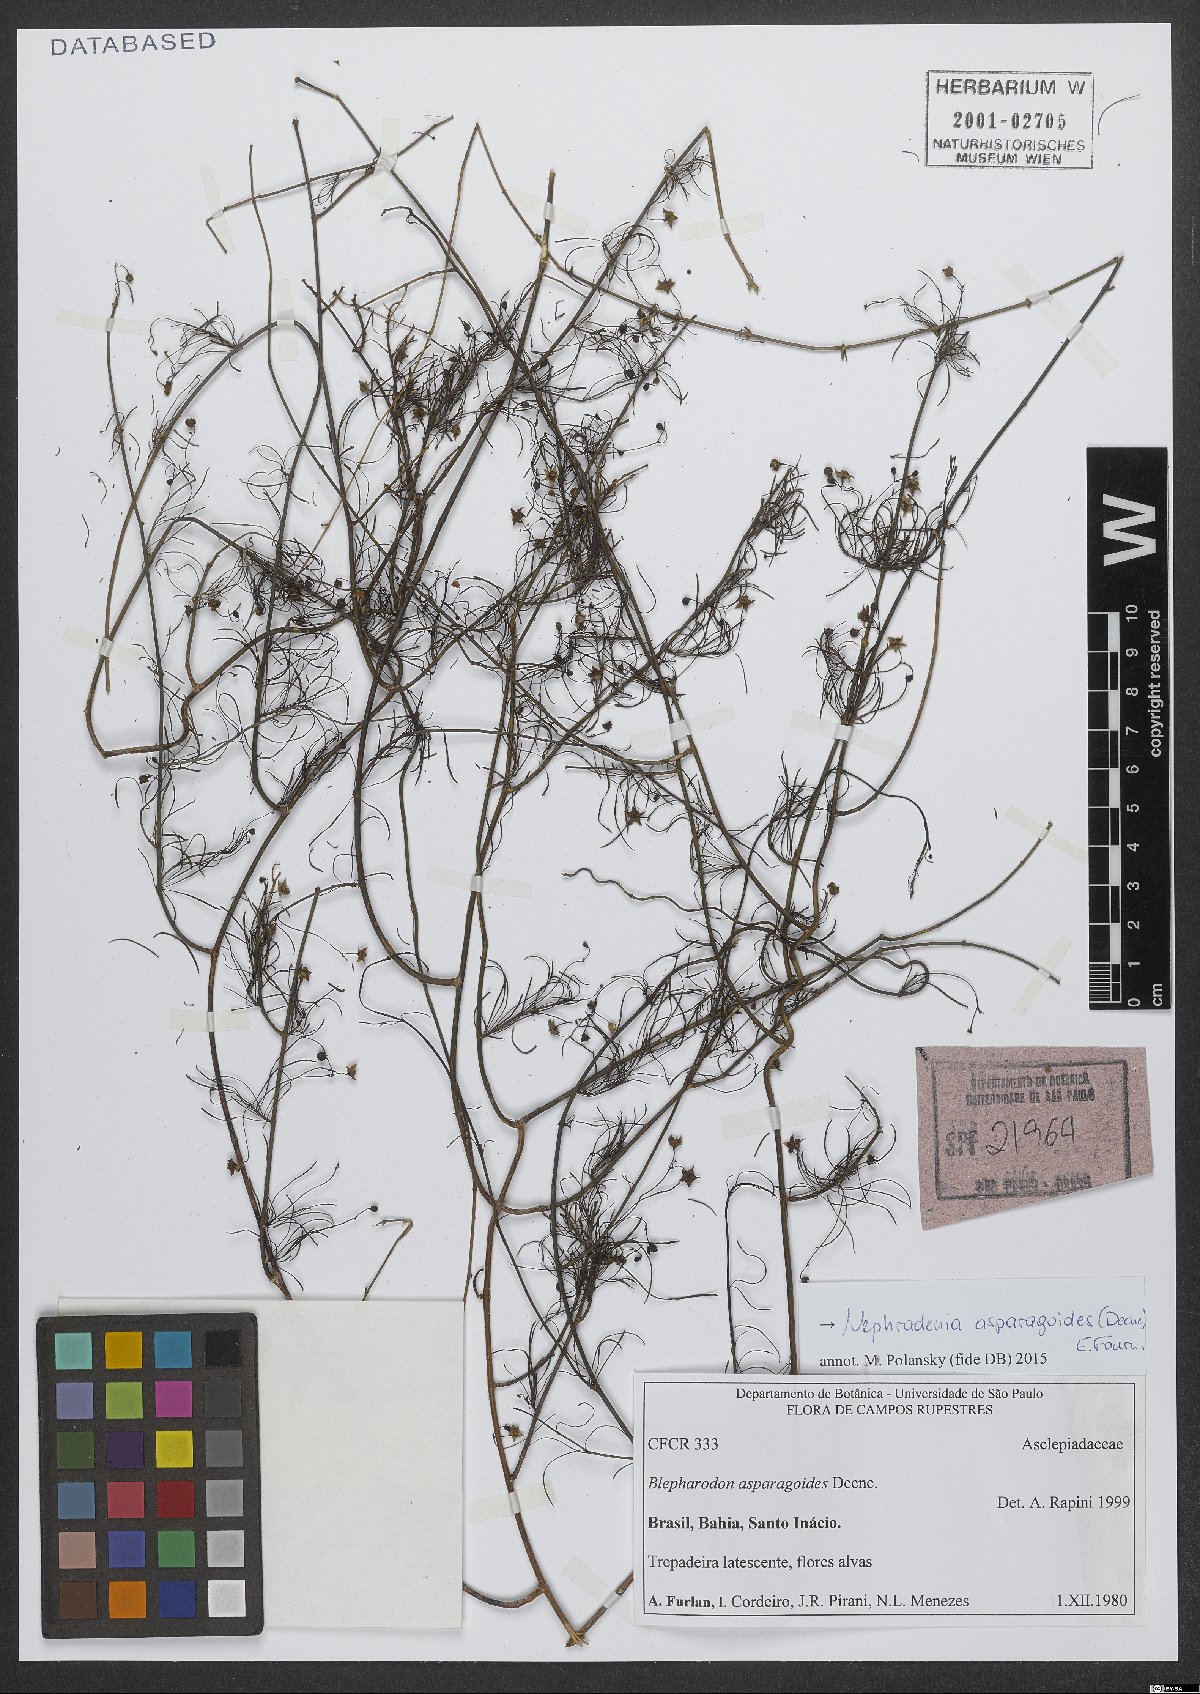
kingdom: Plantae
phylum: Tracheophyta
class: Magnoliopsida
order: Gentianales
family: Apocynaceae
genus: Nephradenia
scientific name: Nephradenia asparagoides
